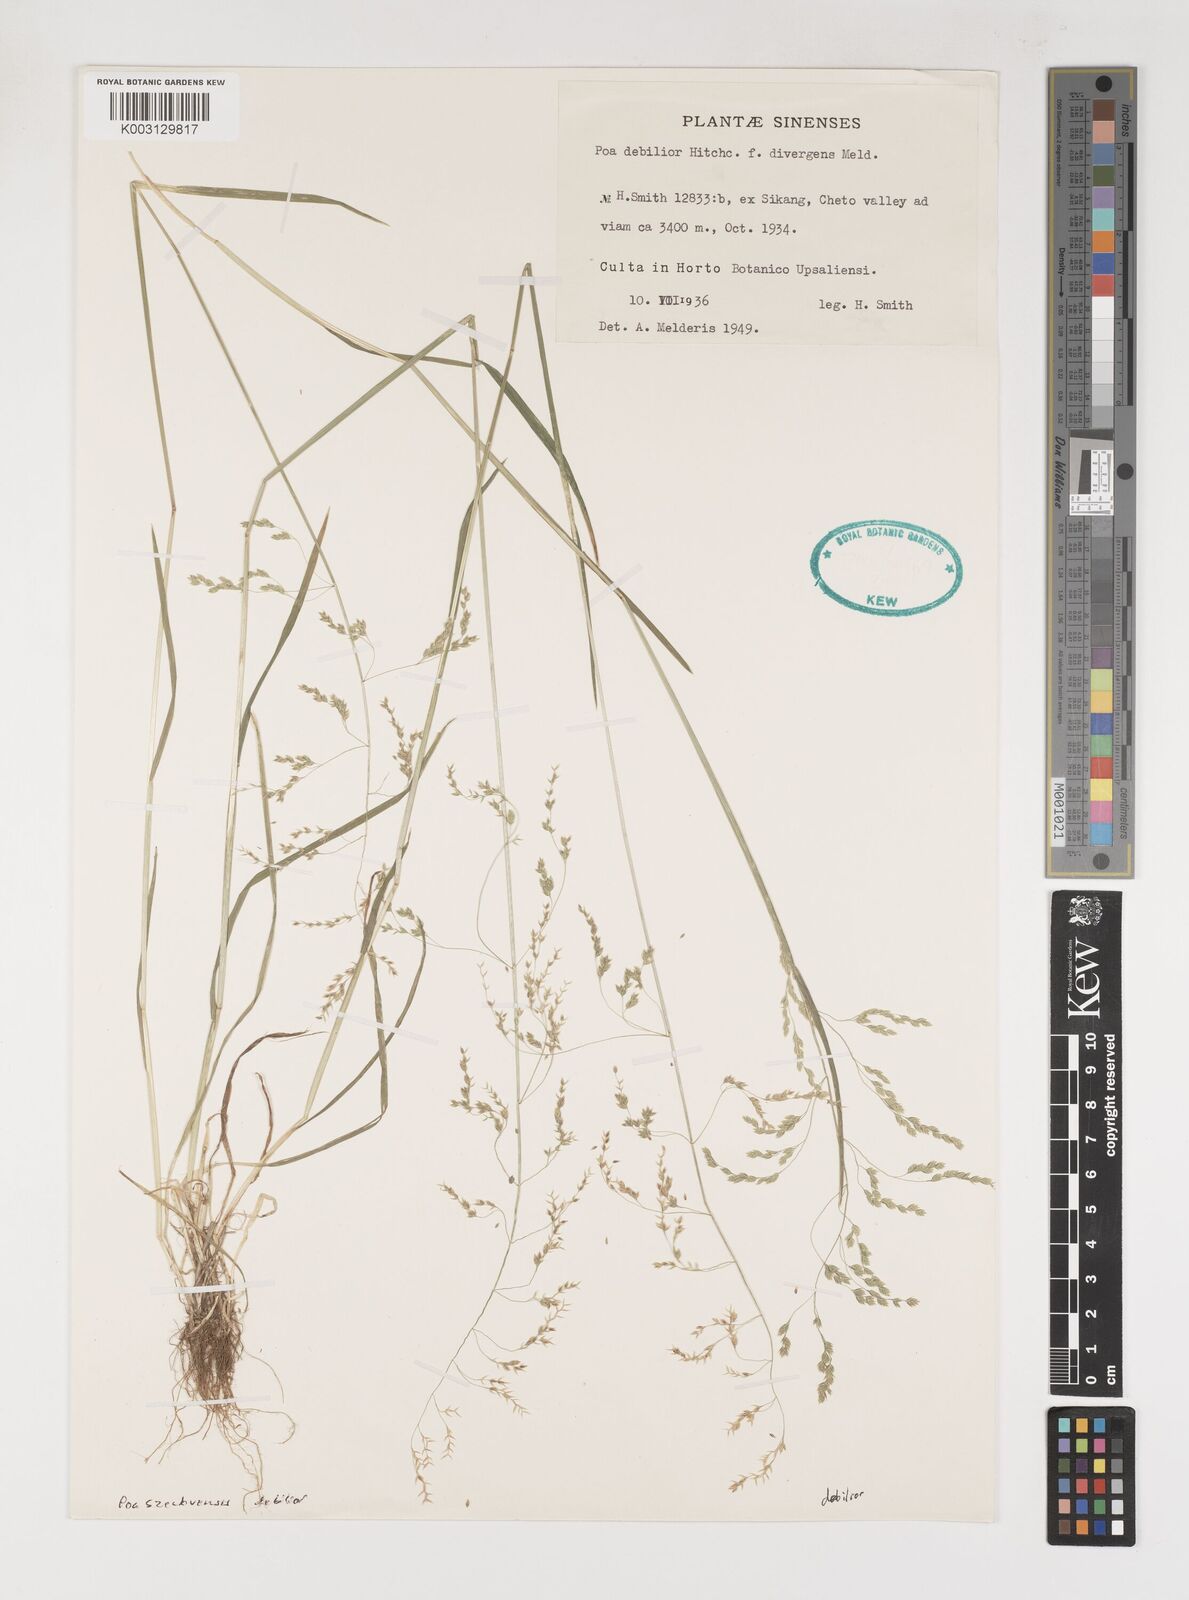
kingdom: Plantae
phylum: Tracheophyta
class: Liliopsida
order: Poales
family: Poaceae
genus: Poa
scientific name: Poa szechuensis
